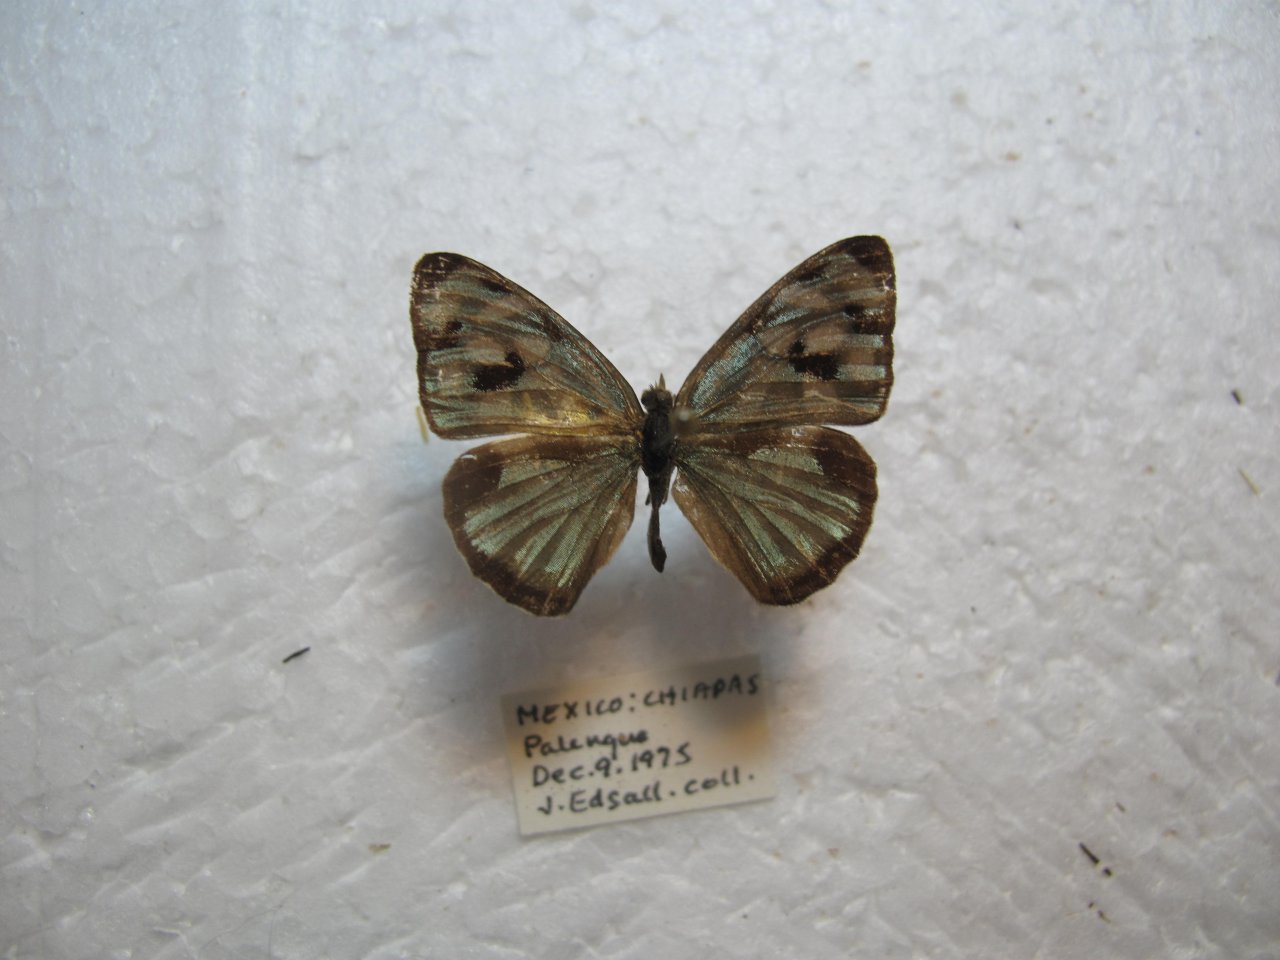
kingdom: Animalia
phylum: Arthropoda
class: Insecta
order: Lepidoptera
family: Nymphalidae
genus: Dynamine
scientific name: Dynamine mylitta
